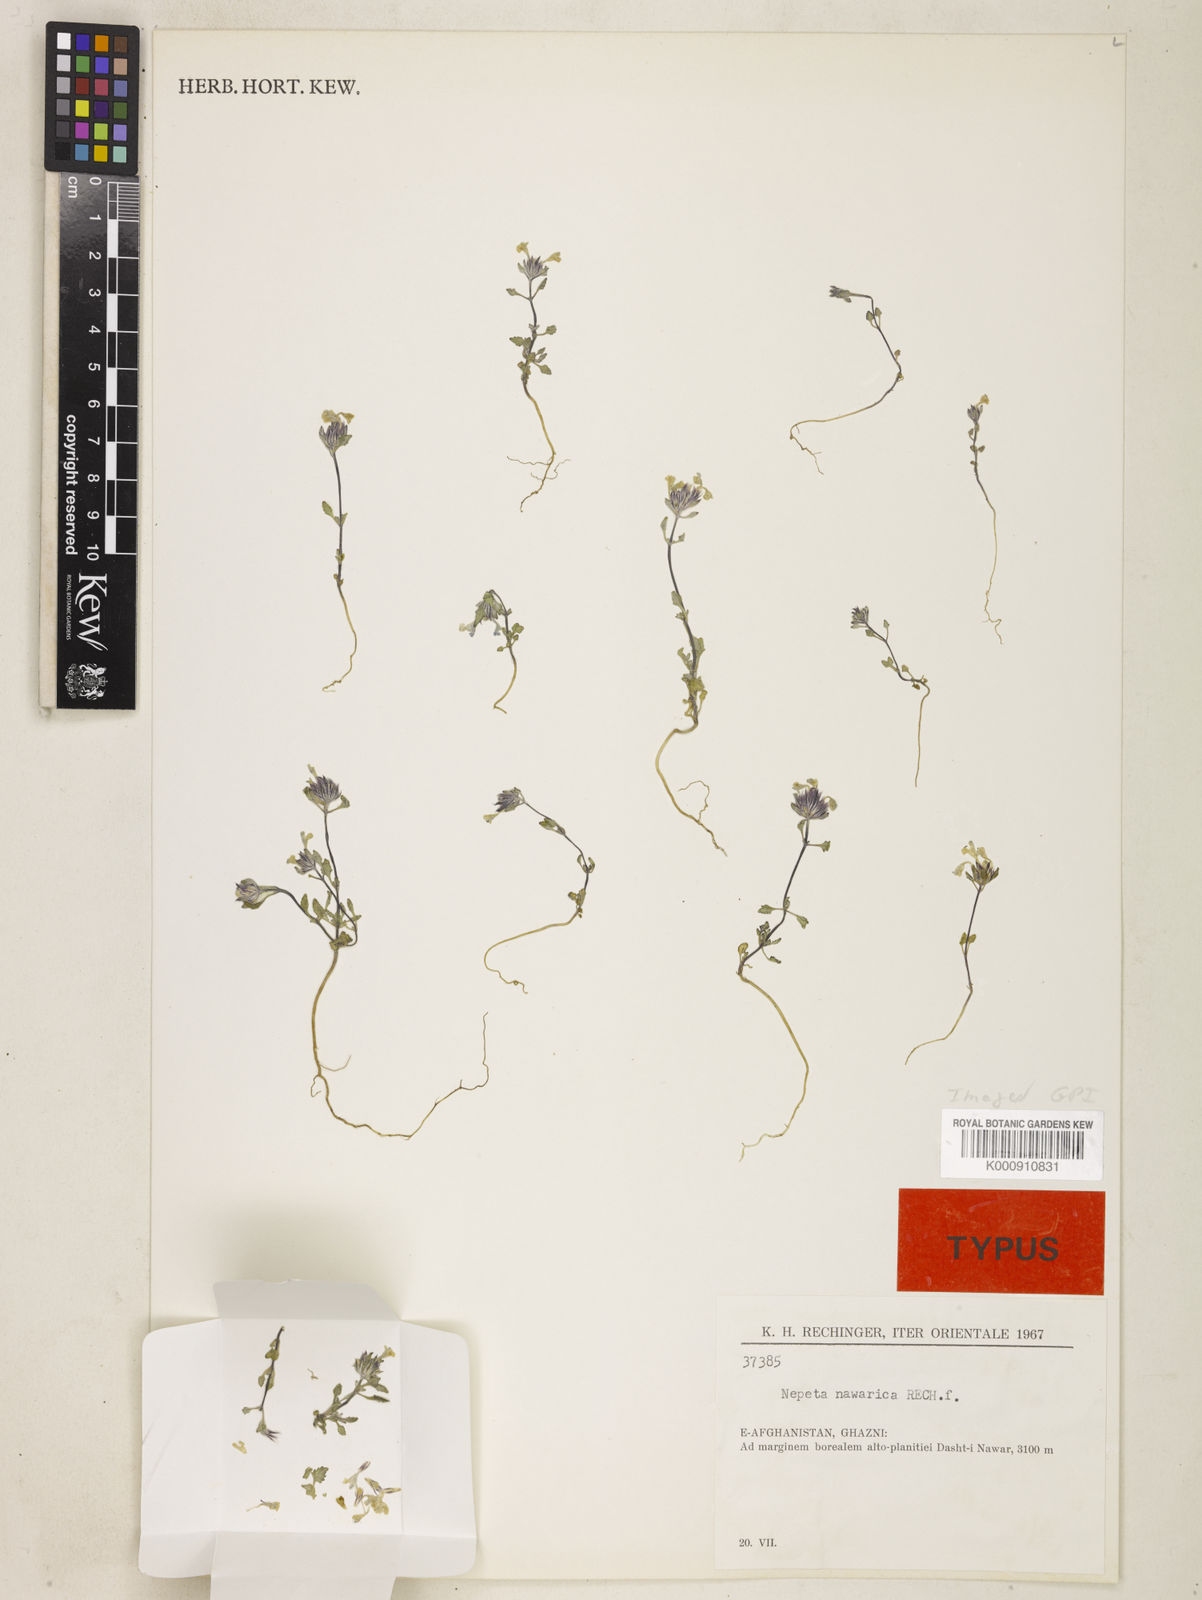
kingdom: Plantae
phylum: Tracheophyta
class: Magnoliopsida
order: Lamiales
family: Lamiaceae
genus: Nepeta
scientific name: Nepeta nawarica
